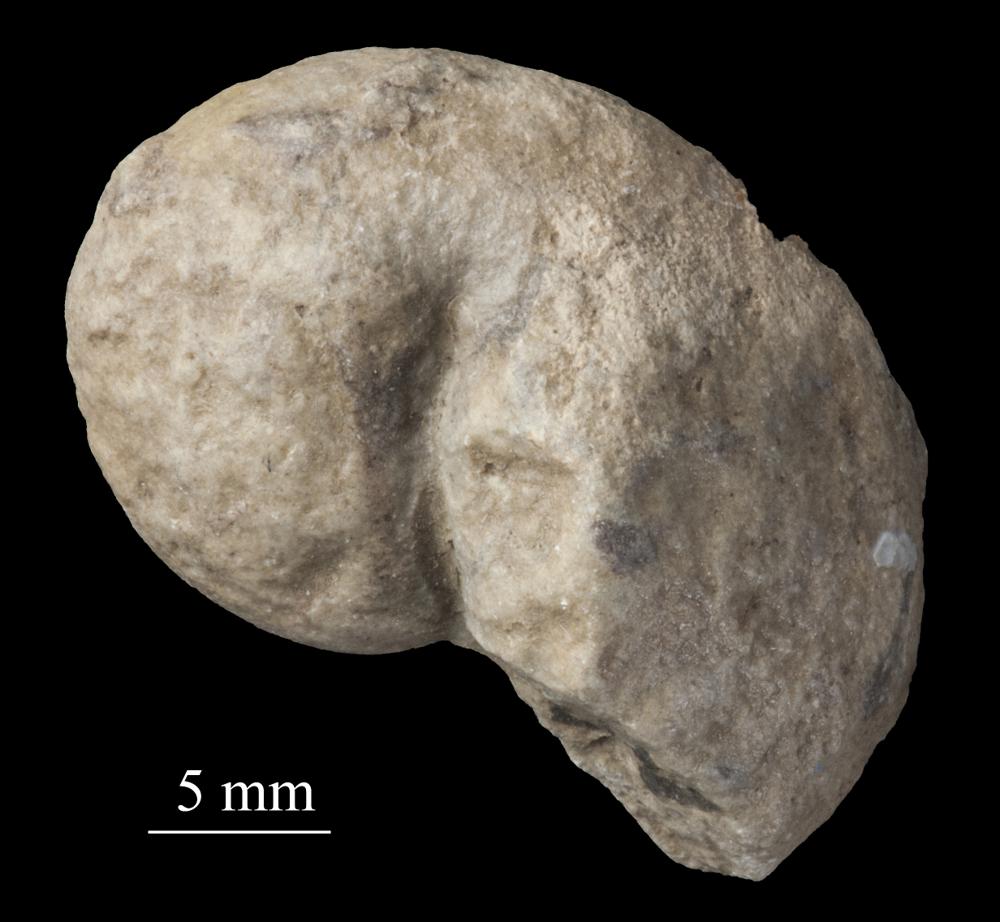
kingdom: Animalia
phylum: Mollusca
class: Gastropoda
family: Bellerophontidae
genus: Bellerophon
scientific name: Bellerophon
